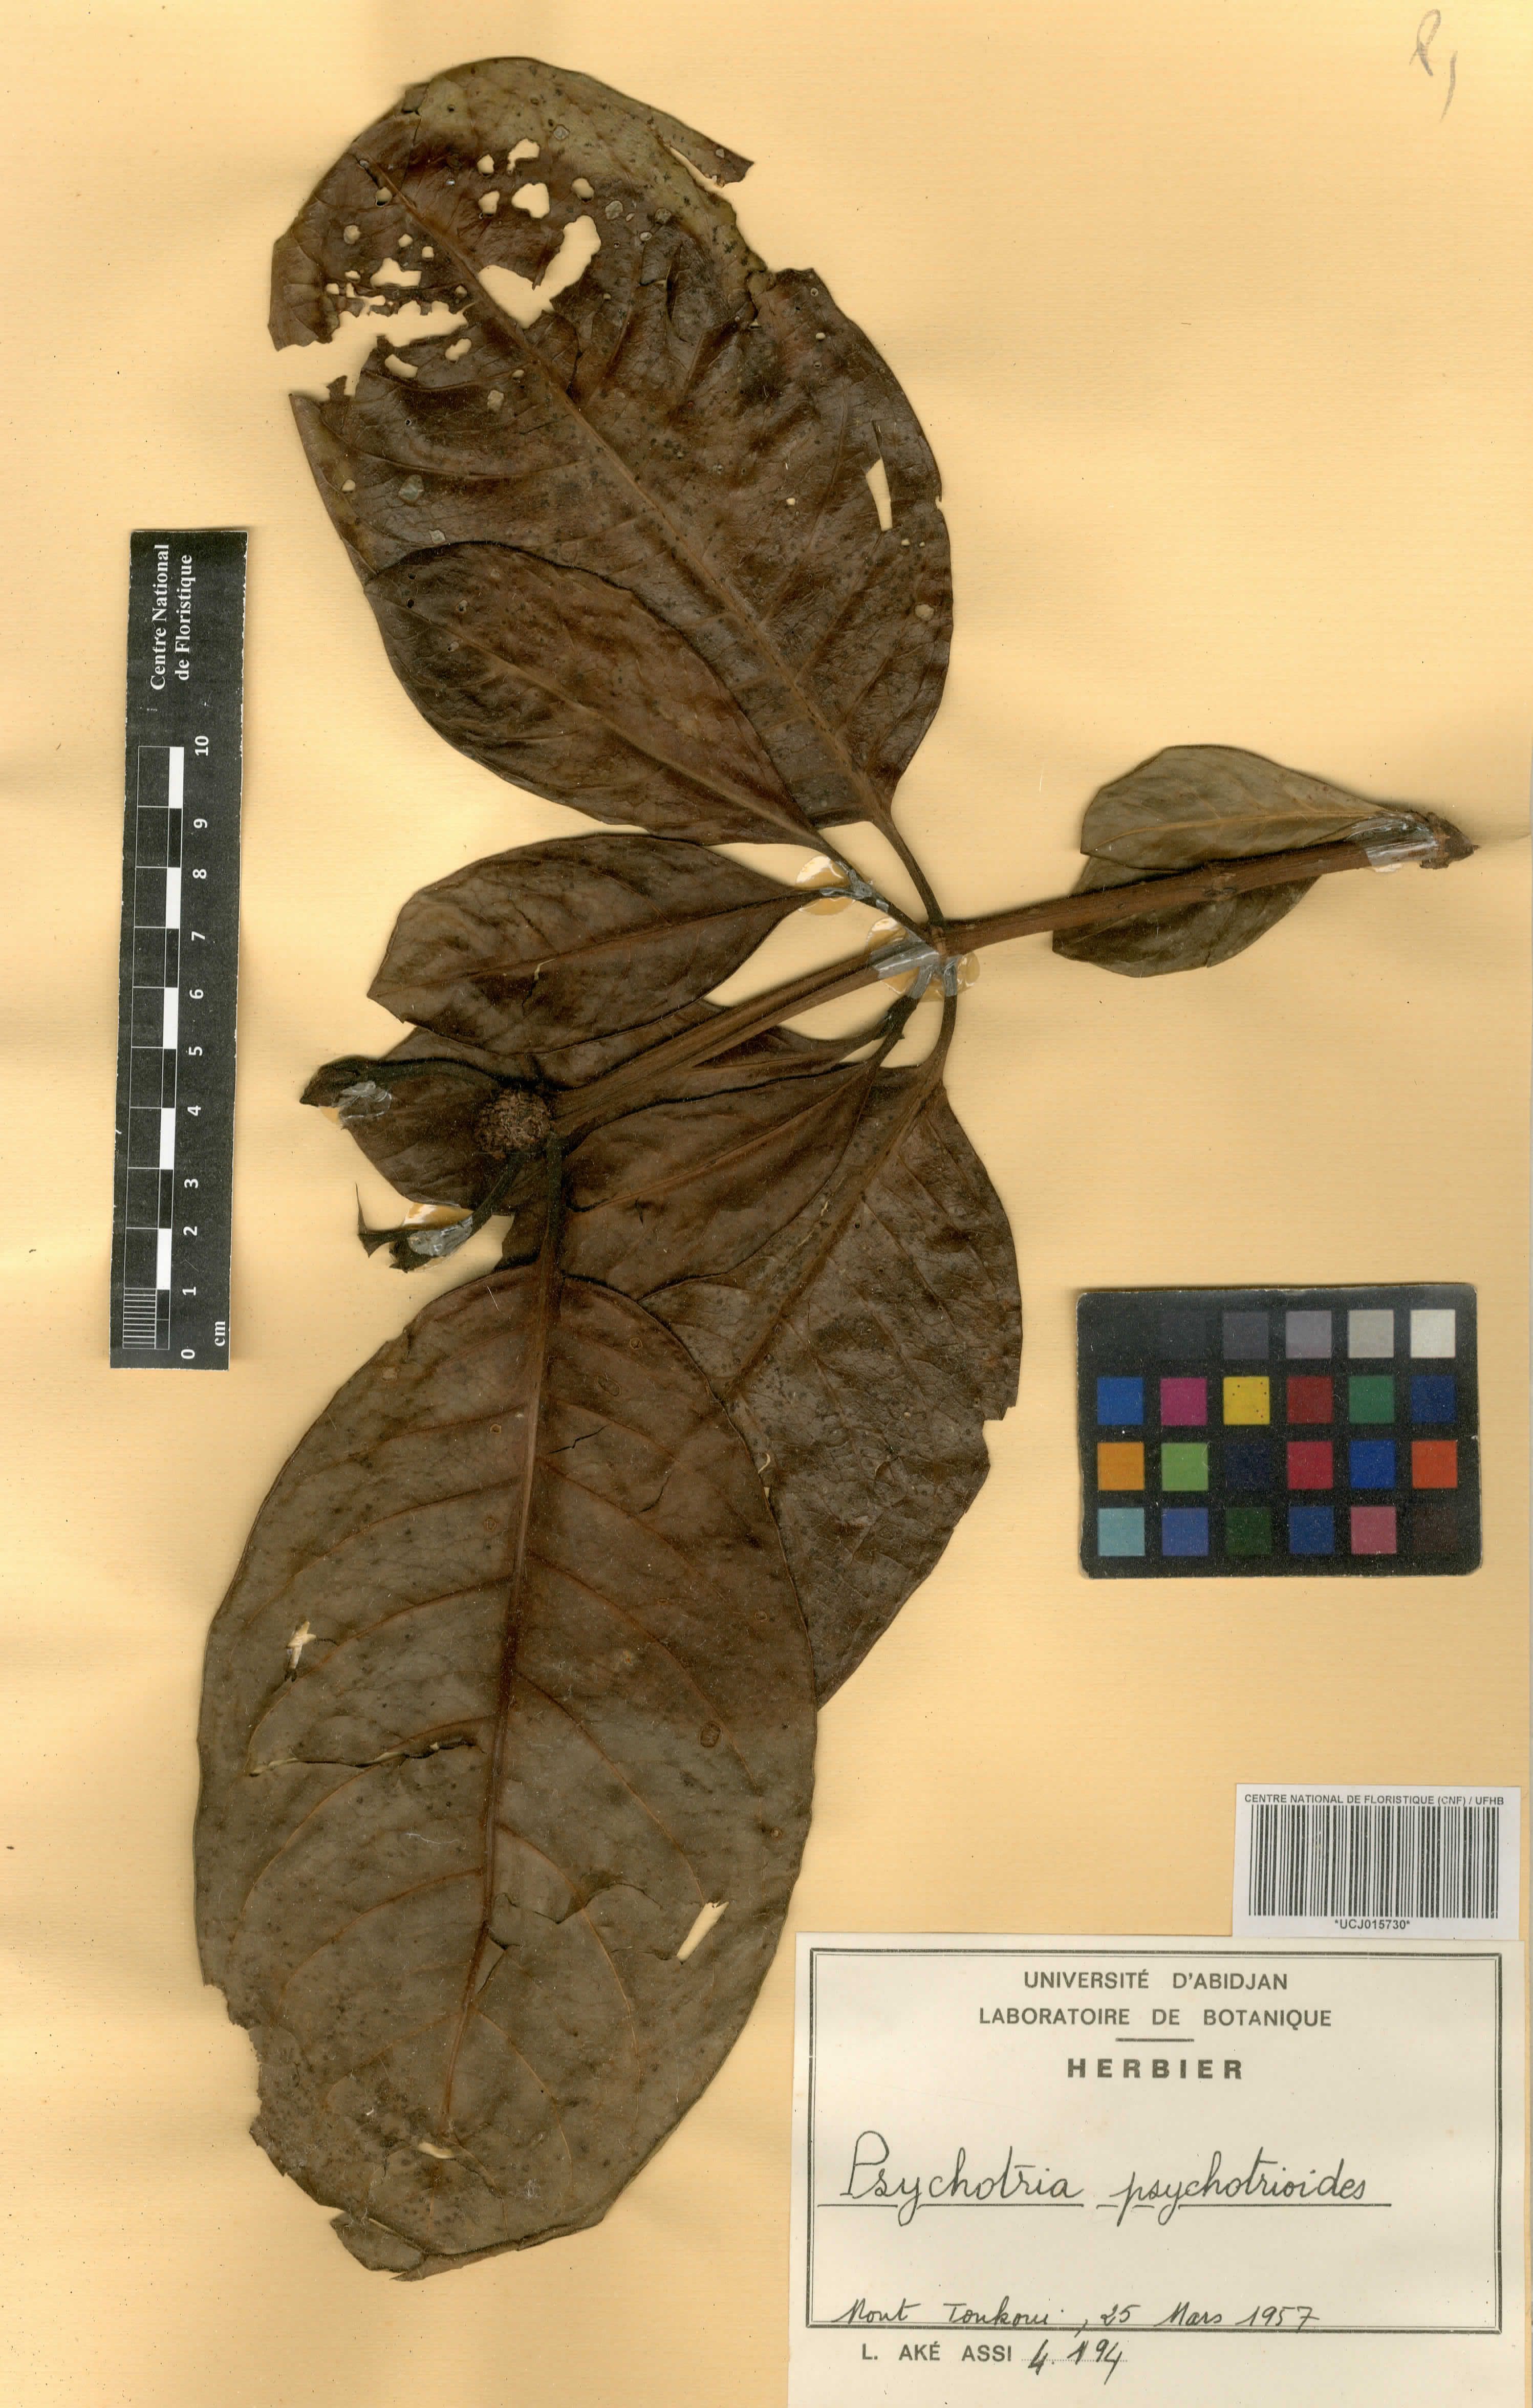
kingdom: Plantae
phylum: Tracheophyta
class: Magnoliopsida
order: Gentianales
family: Rubiaceae
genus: Psychotria
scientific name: Psychotria psychotrioides
